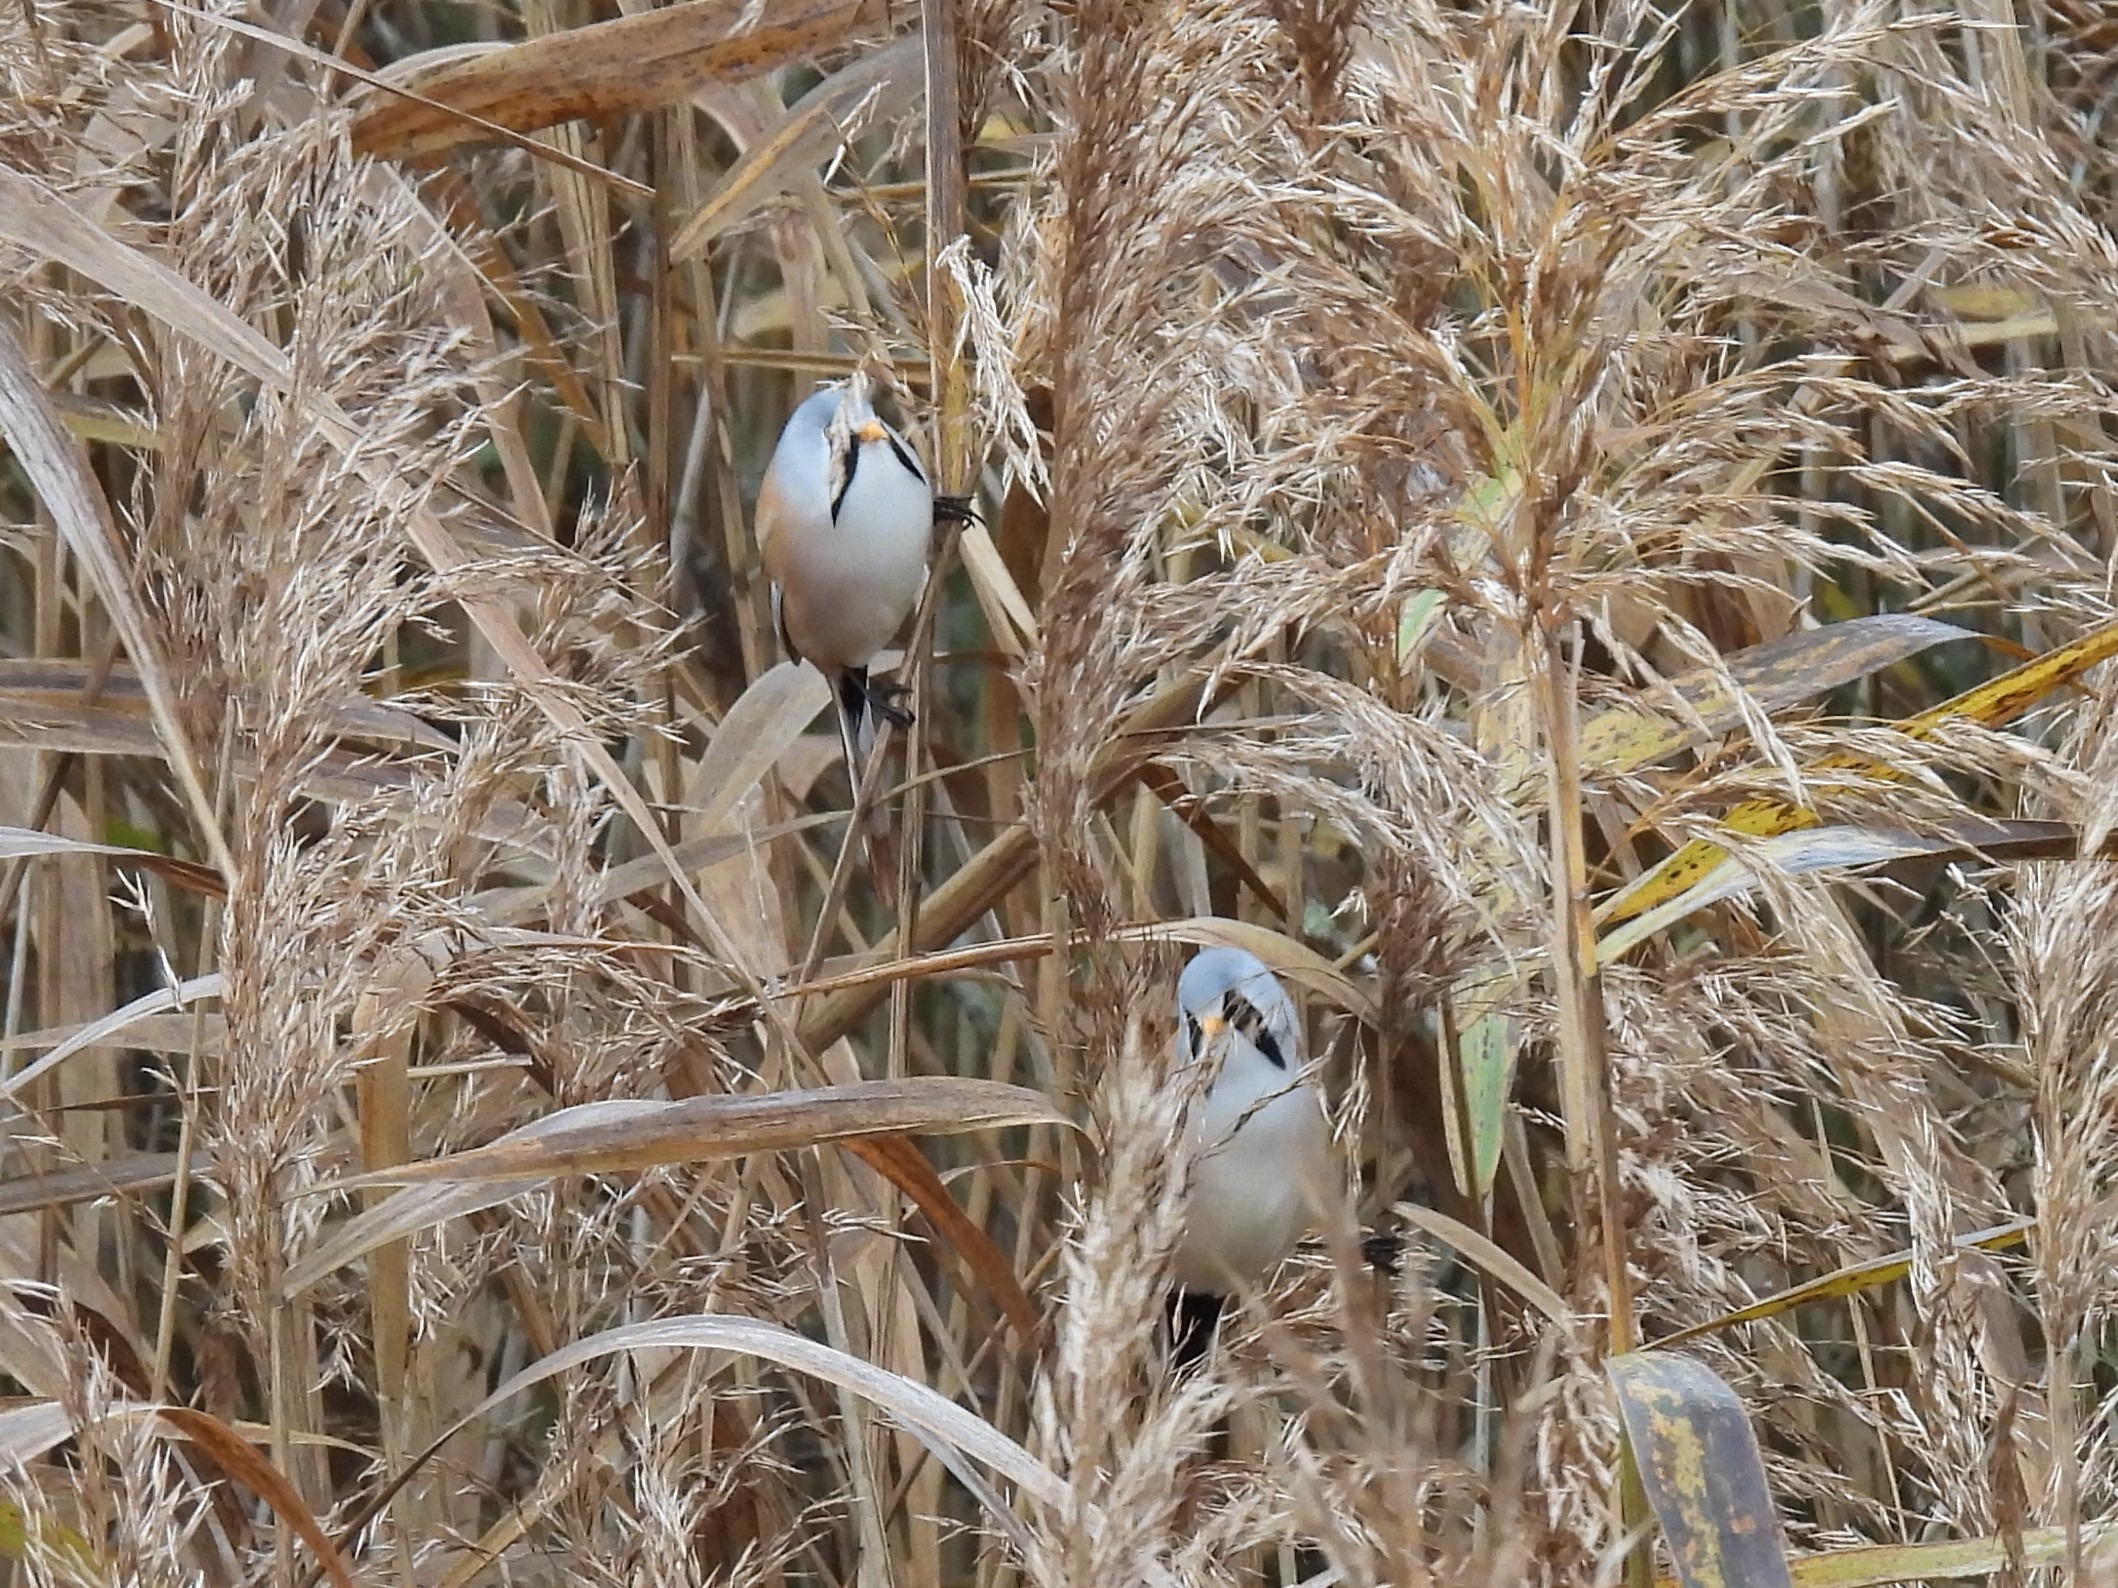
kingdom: Animalia
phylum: Chordata
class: Aves
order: Passeriformes
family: Panuridae
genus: Panurus
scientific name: Panurus biarmicus
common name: Skægmejse
